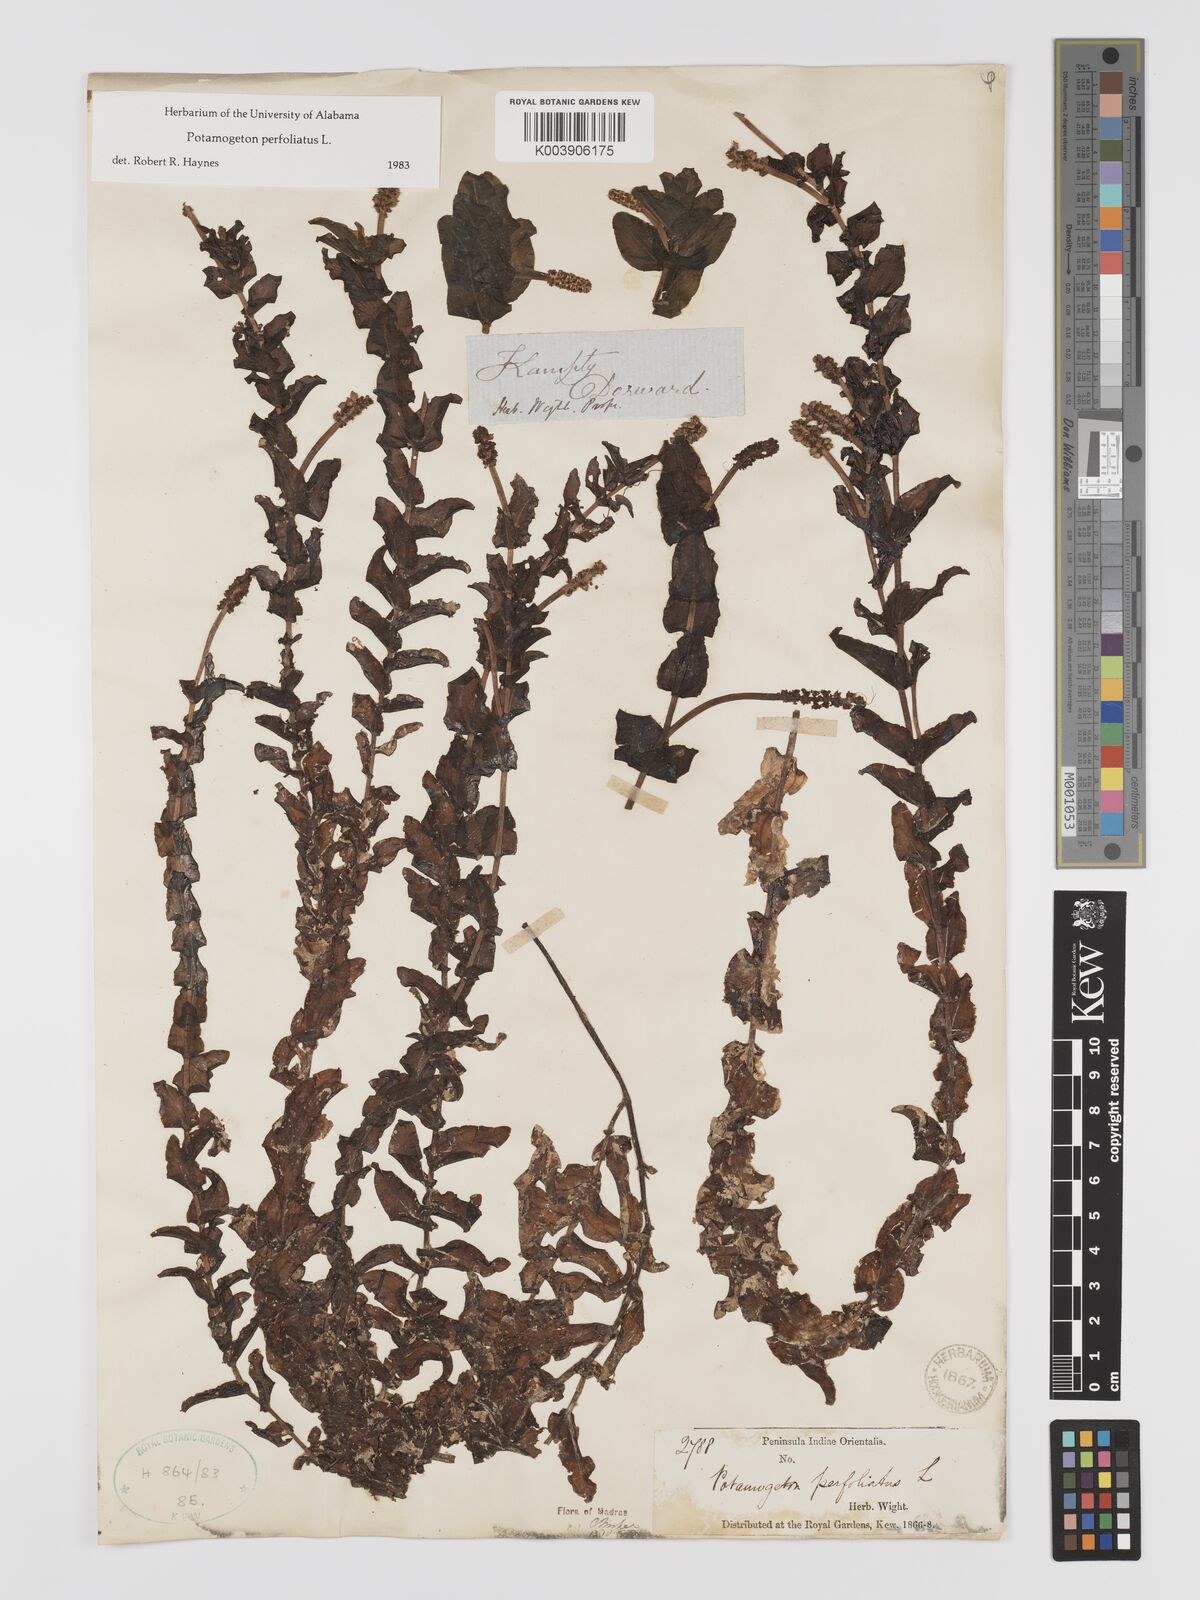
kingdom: Plantae
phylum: Tracheophyta
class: Liliopsida
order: Alismatales
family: Potamogetonaceae
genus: Potamogeton
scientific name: Potamogeton perfoliatus
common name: Perfoliate pondweed
